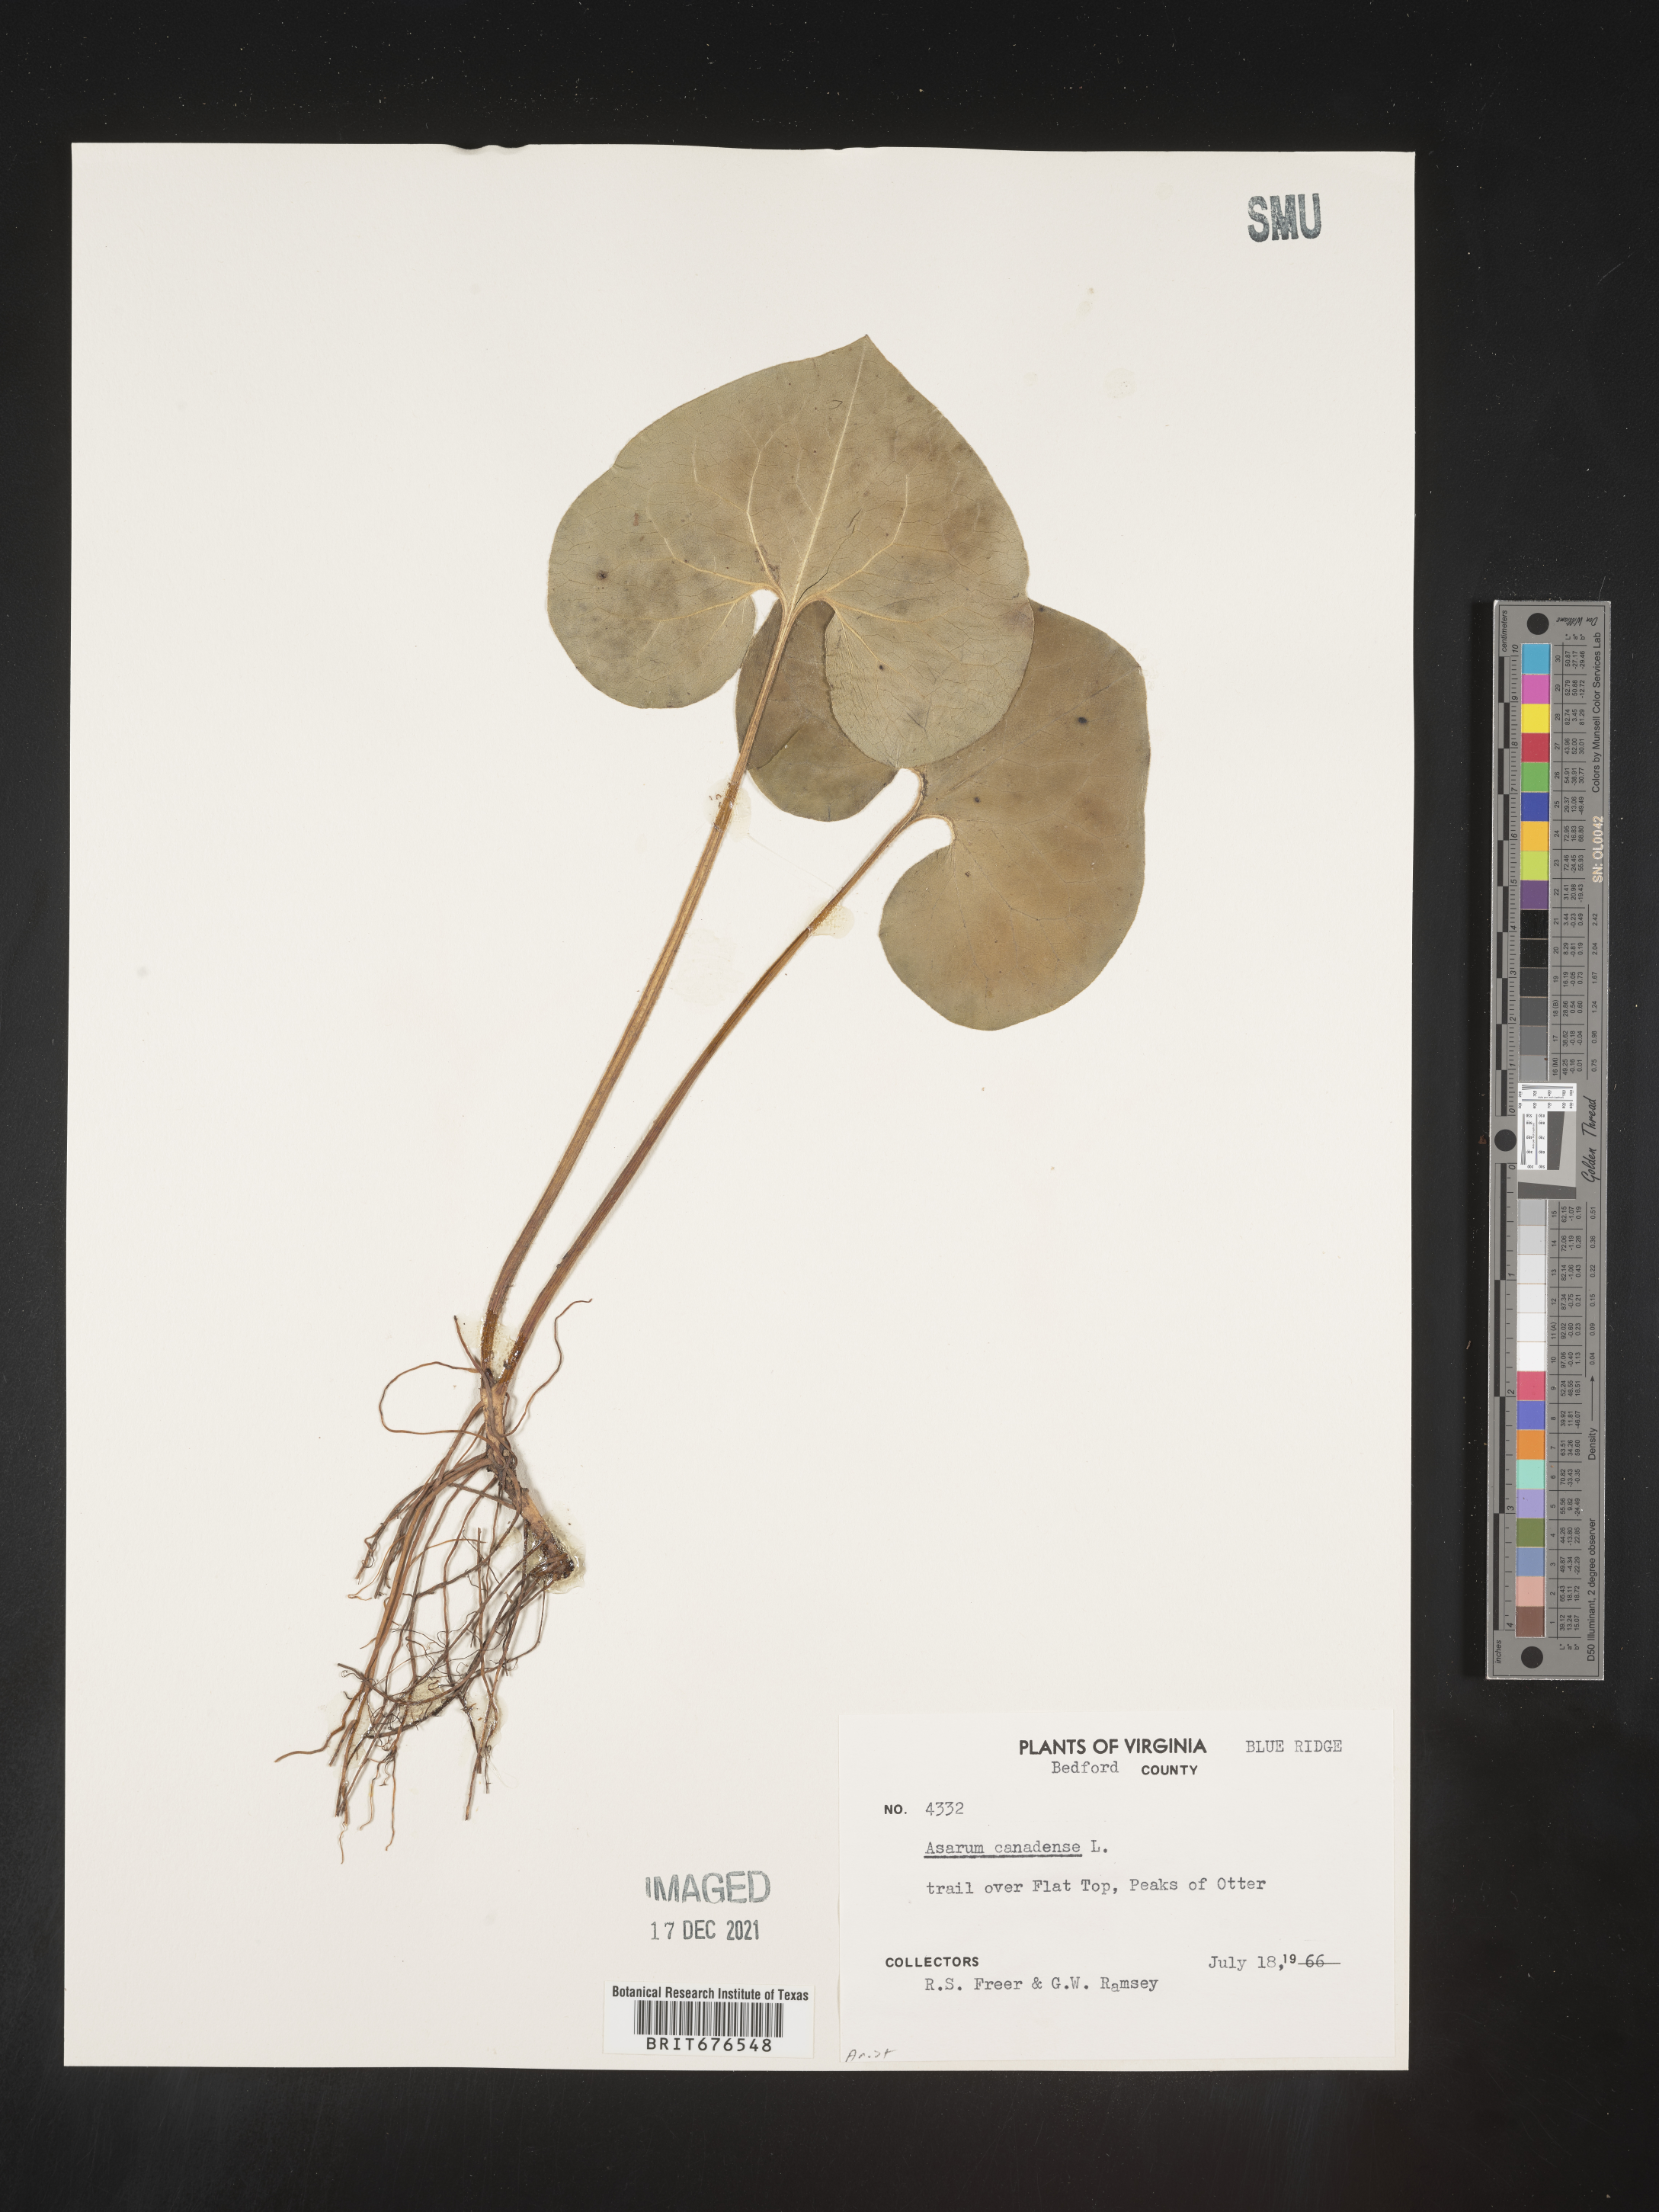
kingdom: Plantae
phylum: Tracheophyta
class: Magnoliopsida
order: Piperales
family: Aristolochiaceae
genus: Asarum
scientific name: Asarum canadense
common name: Wild ginger
